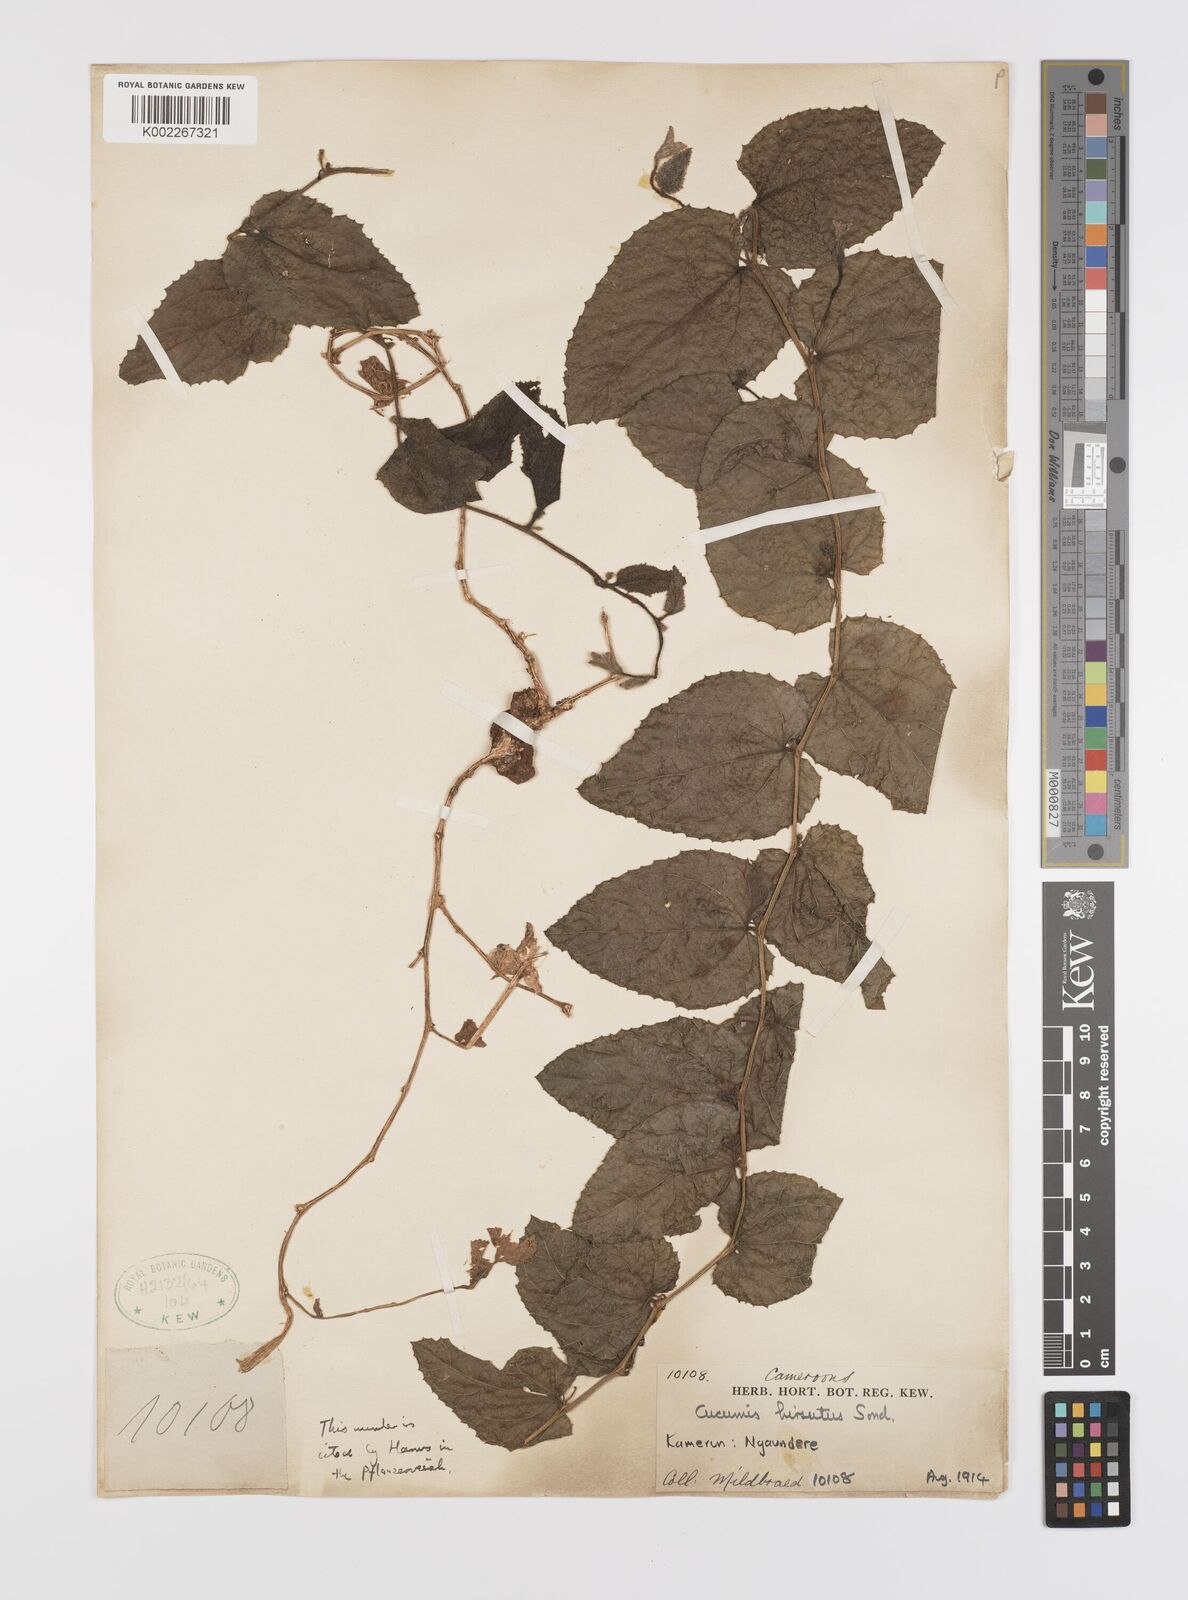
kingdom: Plantae
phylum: Tracheophyta
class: Magnoliopsida
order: Cucurbitales
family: Cucurbitaceae
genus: Cucumis
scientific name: Cucumis hirsutus
